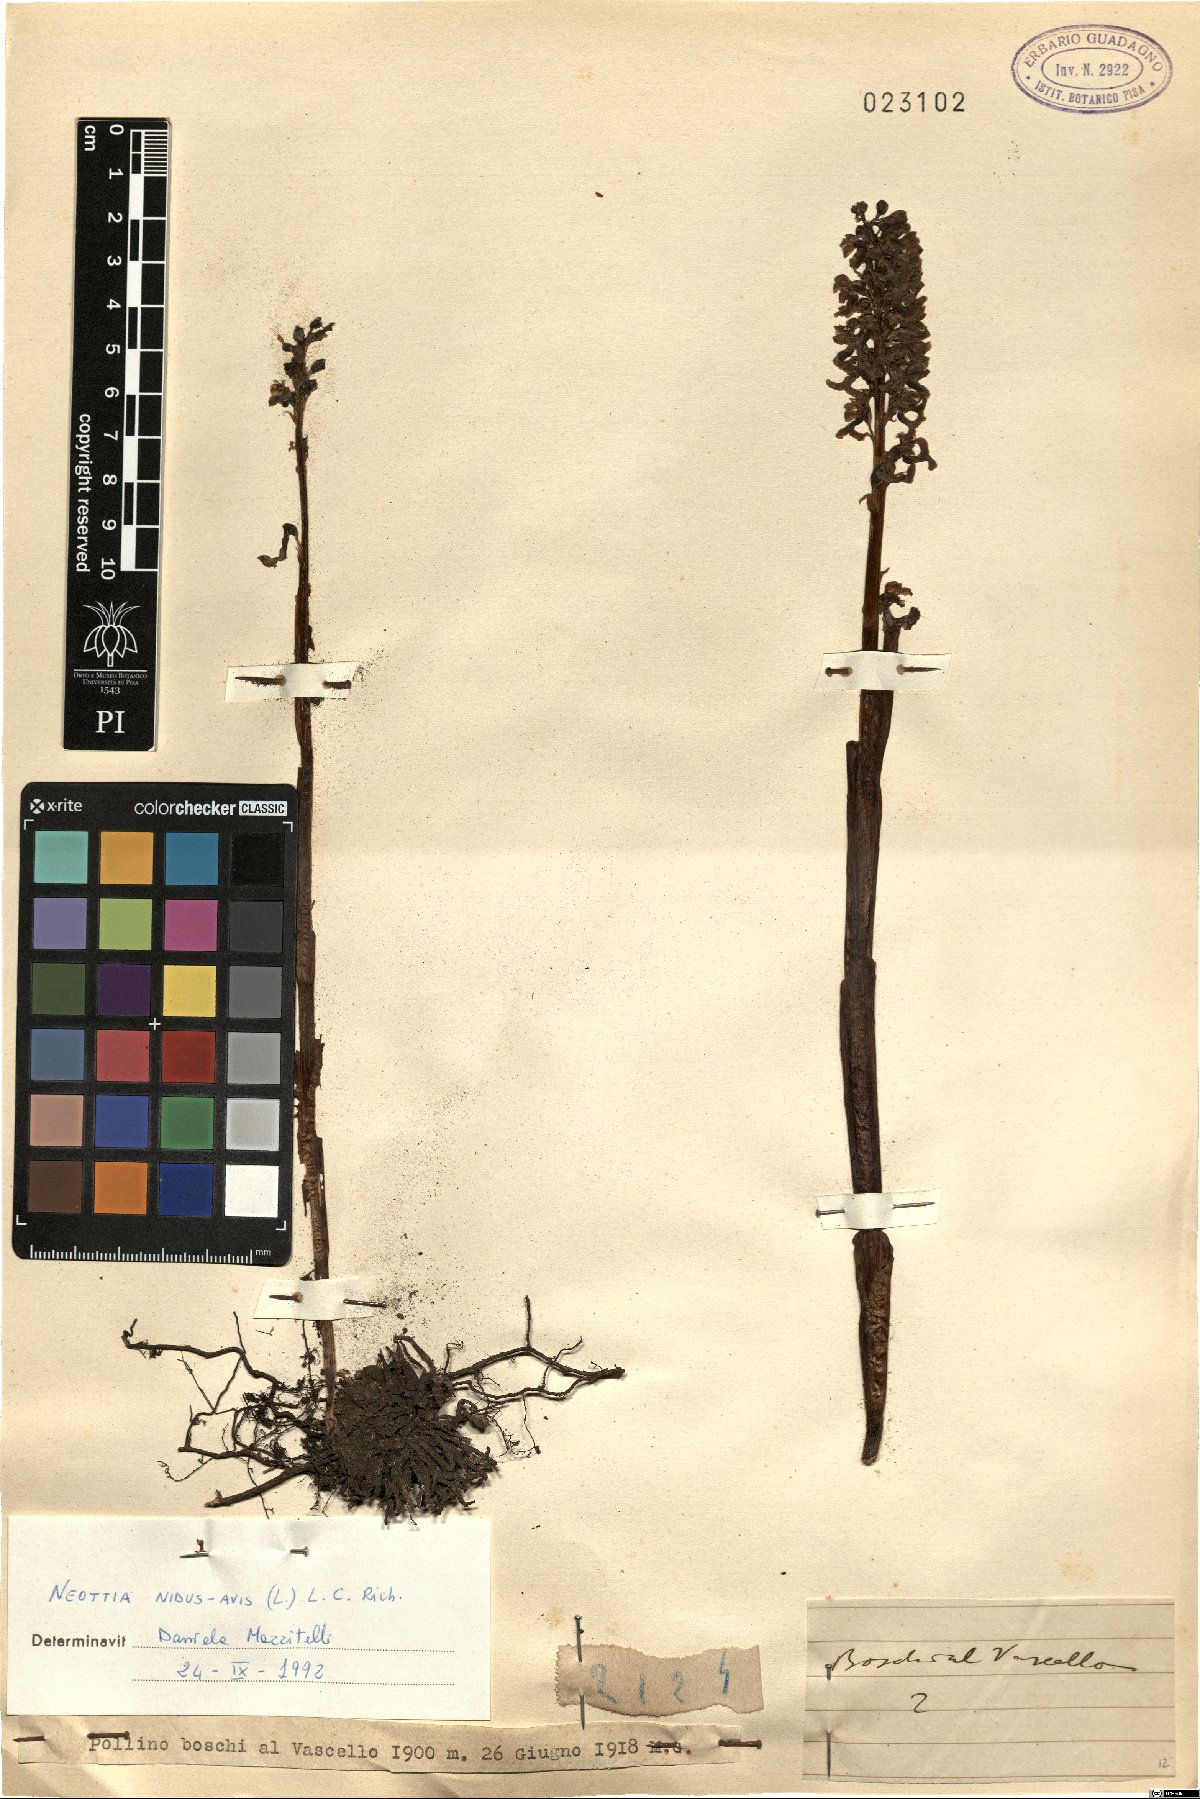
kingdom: Plantae
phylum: Tracheophyta
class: Liliopsida
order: Asparagales
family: Orchidaceae
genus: Neottia
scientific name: Neottia nidus-avis
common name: Bird's-nest orchid
